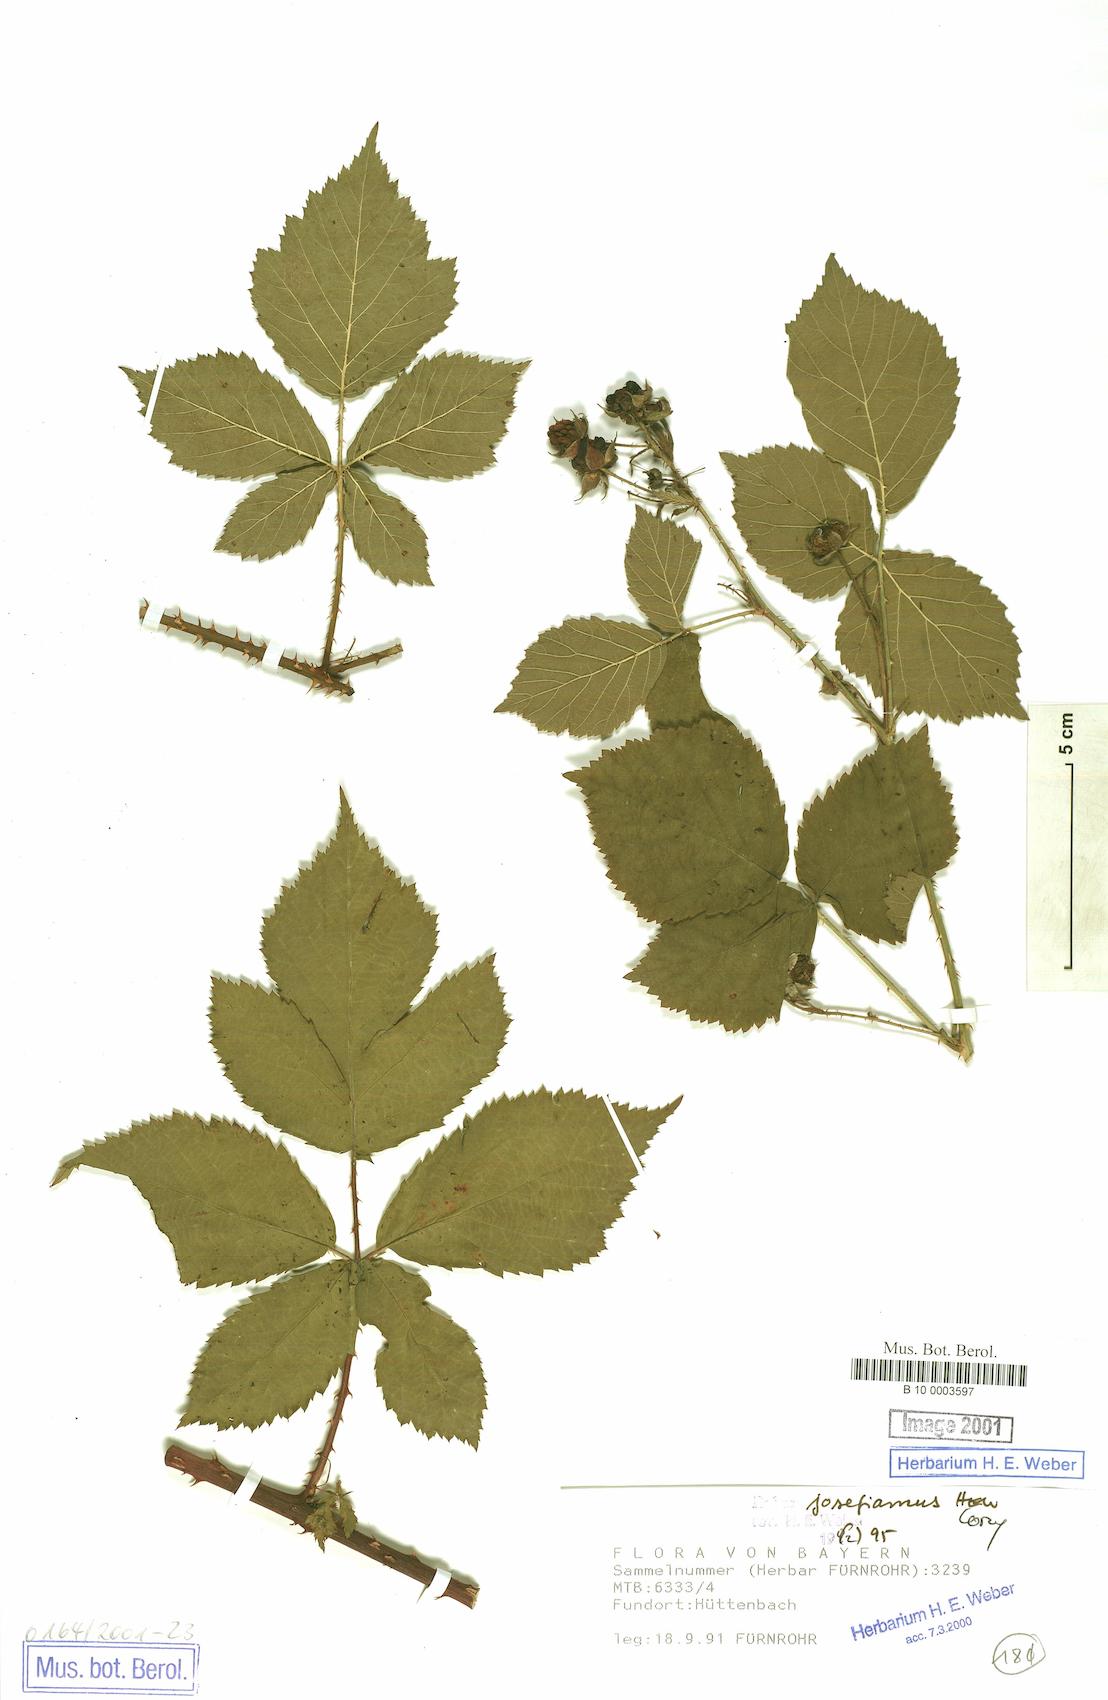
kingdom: Plantae
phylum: Tracheophyta
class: Magnoliopsida
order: Rosales
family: Rosaceae
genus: Rubus
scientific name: Rubus josefianus
